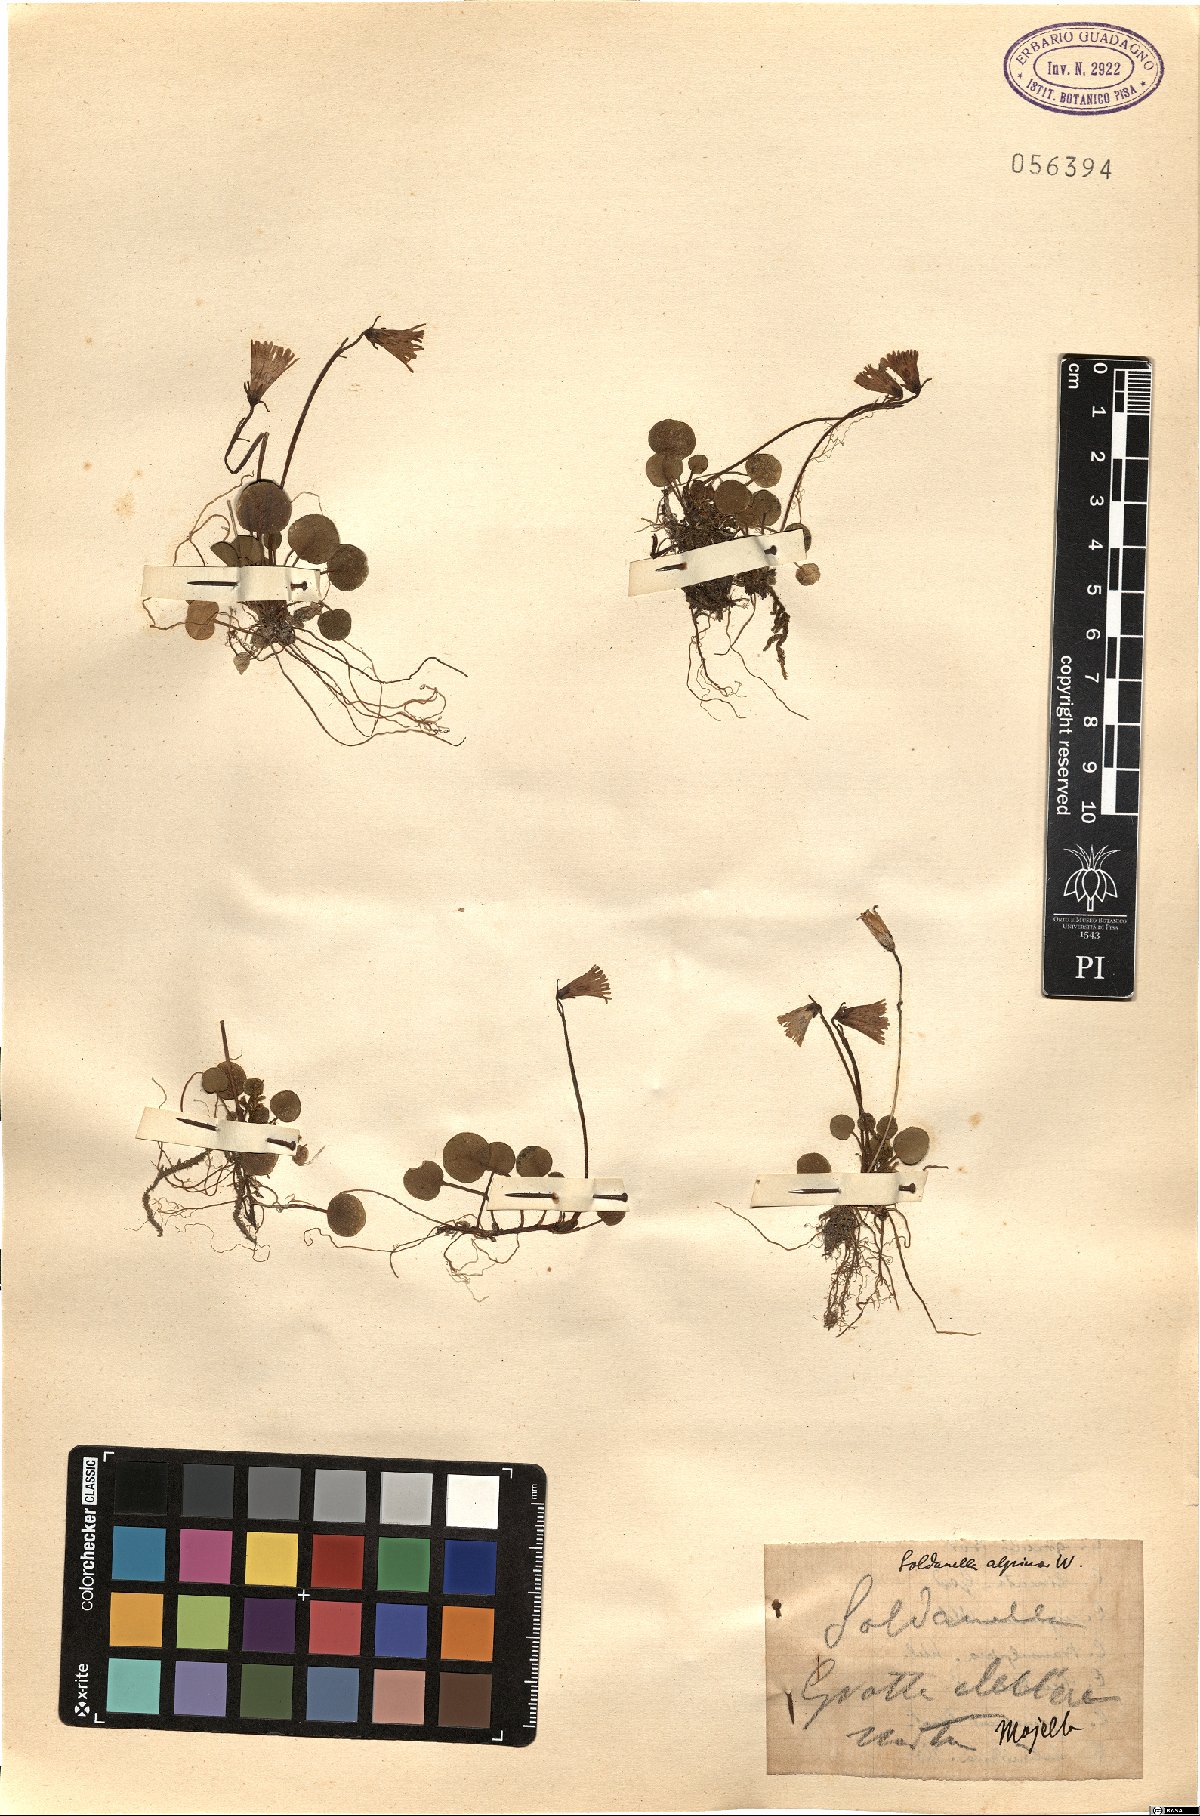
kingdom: Plantae
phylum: Tracheophyta
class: Magnoliopsida
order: Ericales
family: Primulaceae
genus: Soldanella
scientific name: Soldanella alpina
